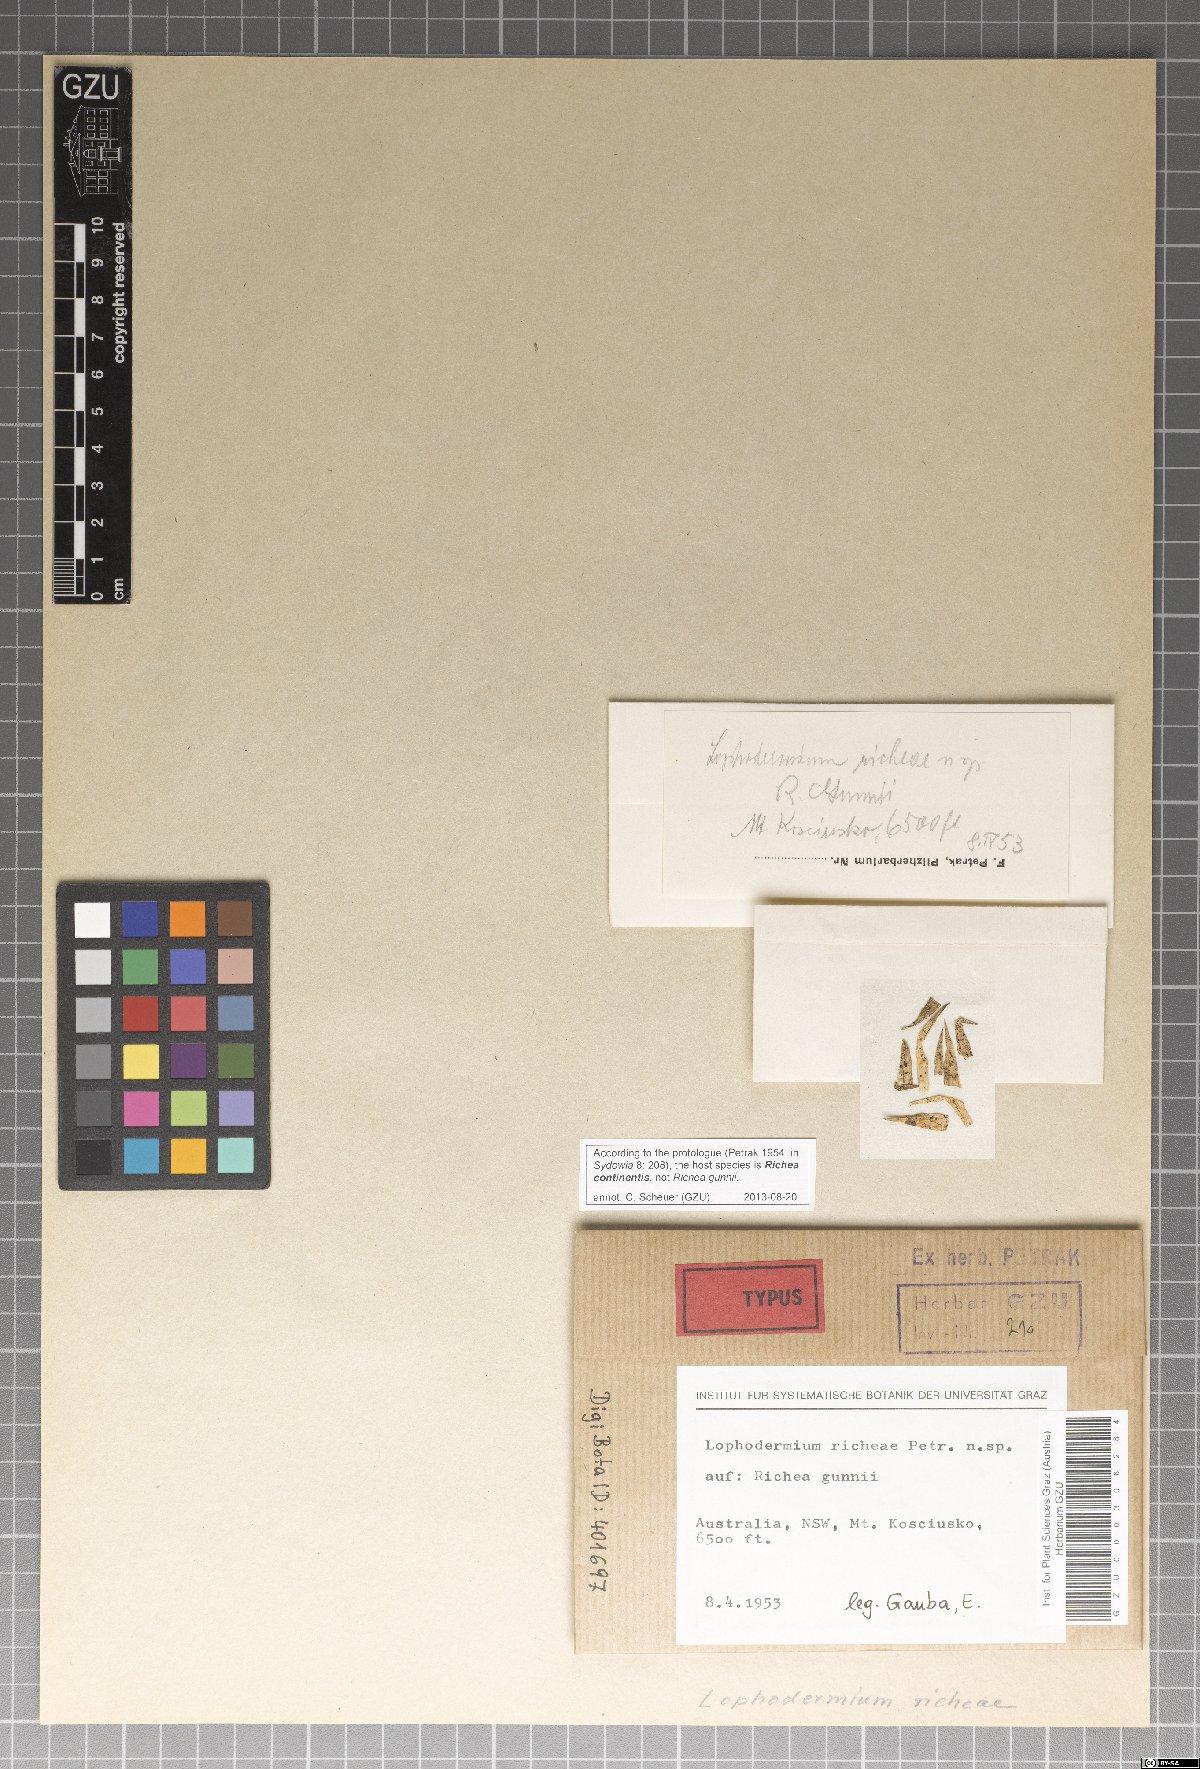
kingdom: Fungi
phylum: Ascomycota
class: Leotiomycetes
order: Rhytismatales
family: Rhytismataceae
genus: Lophodermium
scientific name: Lophodermium richeae
